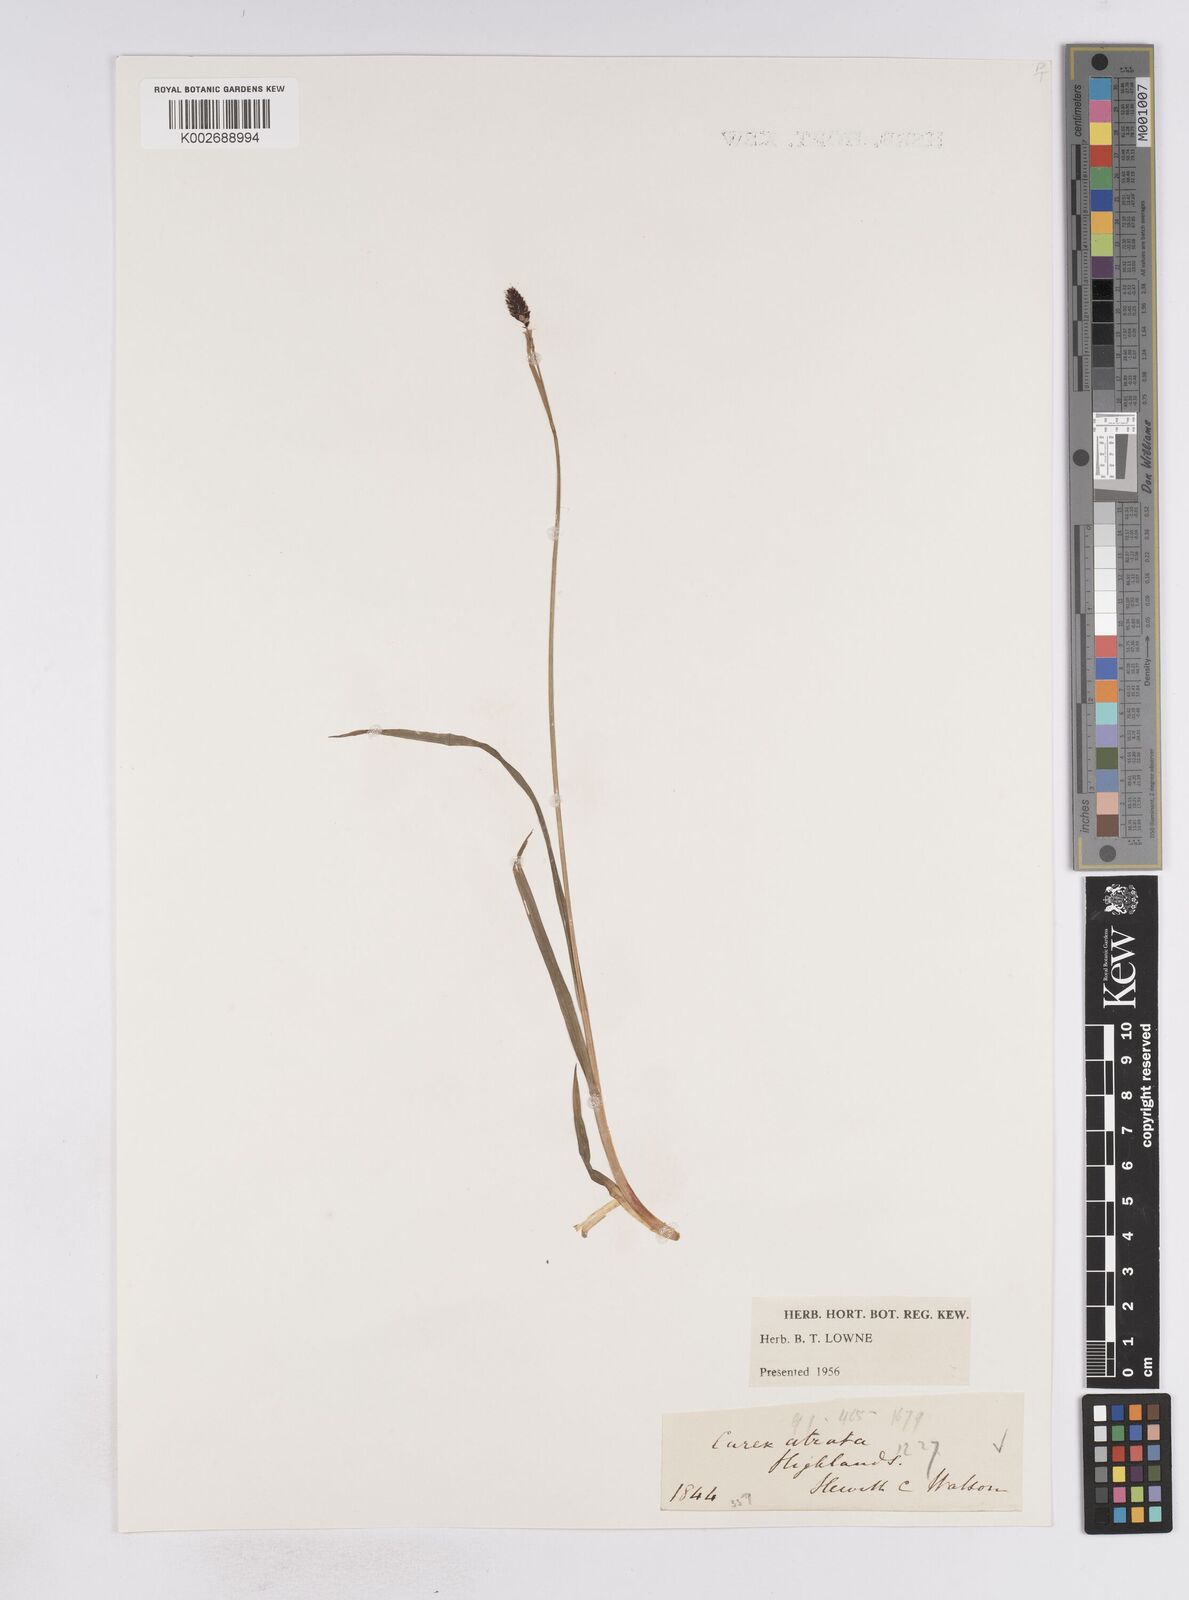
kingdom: Plantae
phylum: Tracheophyta
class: Liliopsida
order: Poales
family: Cyperaceae
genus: Carex
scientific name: Carex atrata
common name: Black alpine sedge
